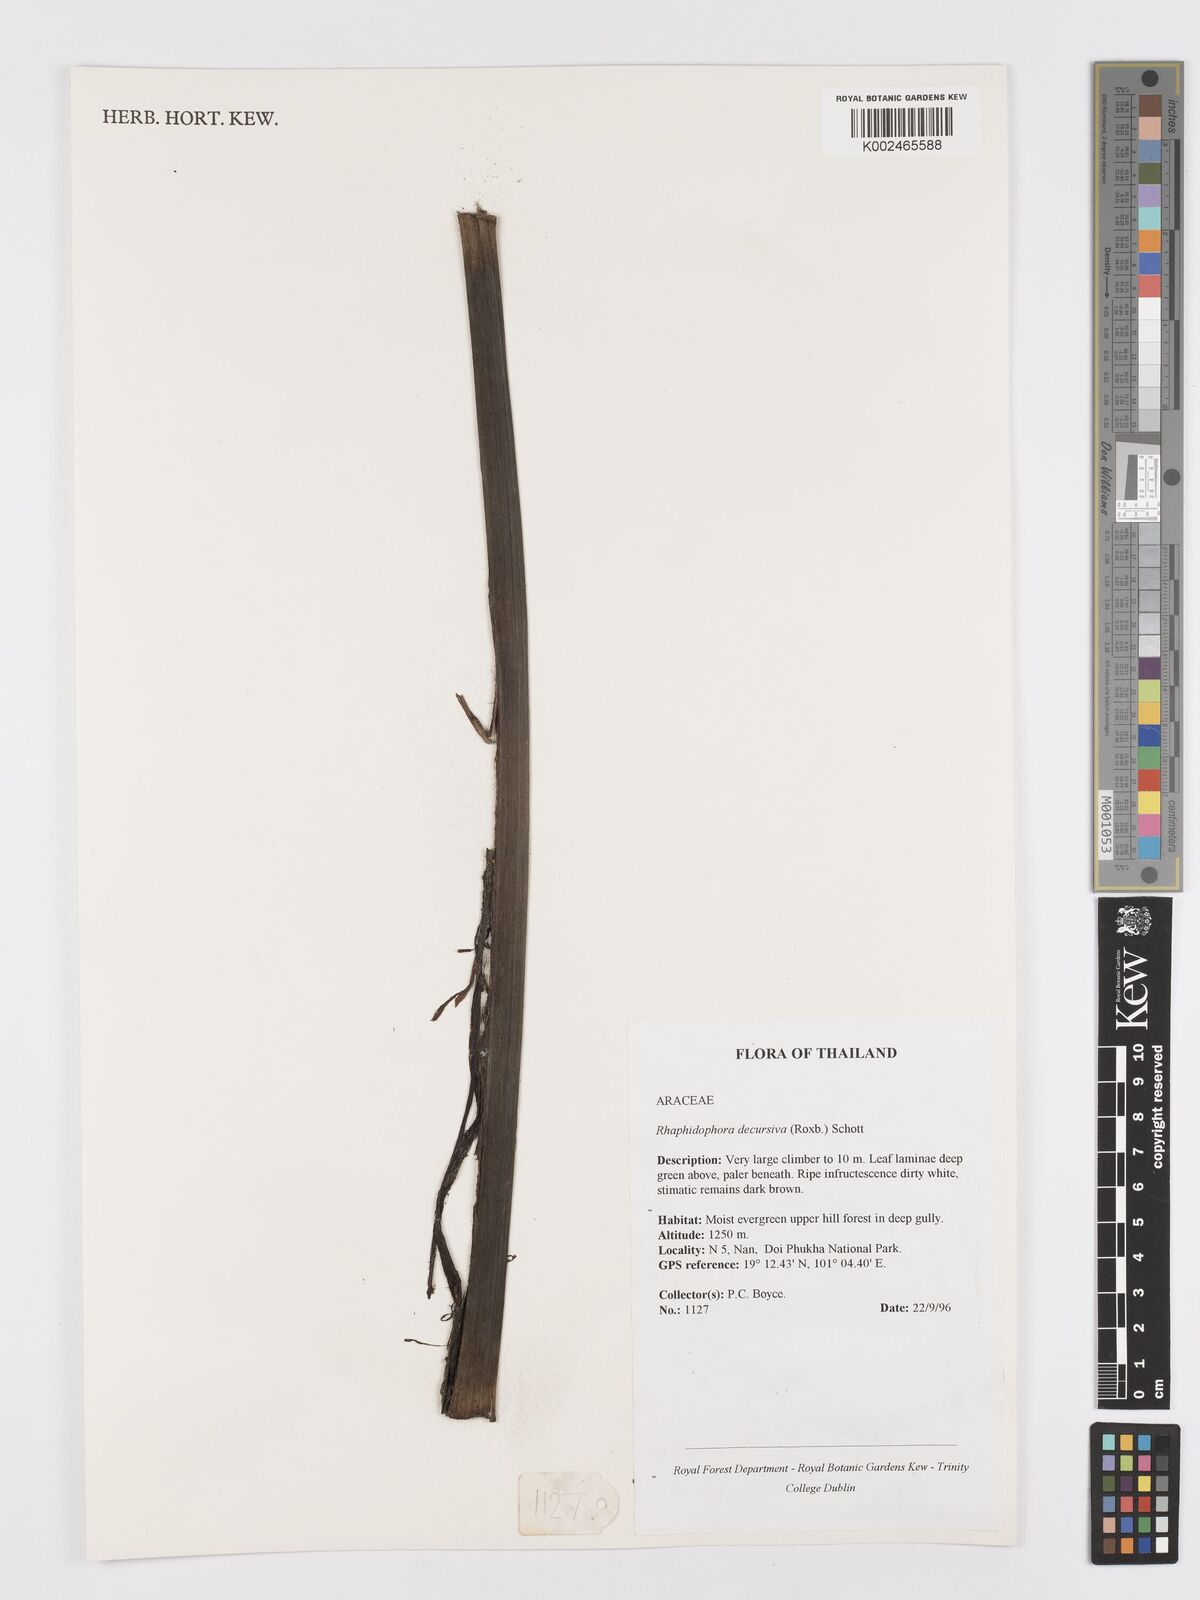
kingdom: Plantae
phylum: Tracheophyta
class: Liliopsida
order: Alismatales
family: Araceae
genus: Rhaphidophora
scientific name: Rhaphidophora decursiva
